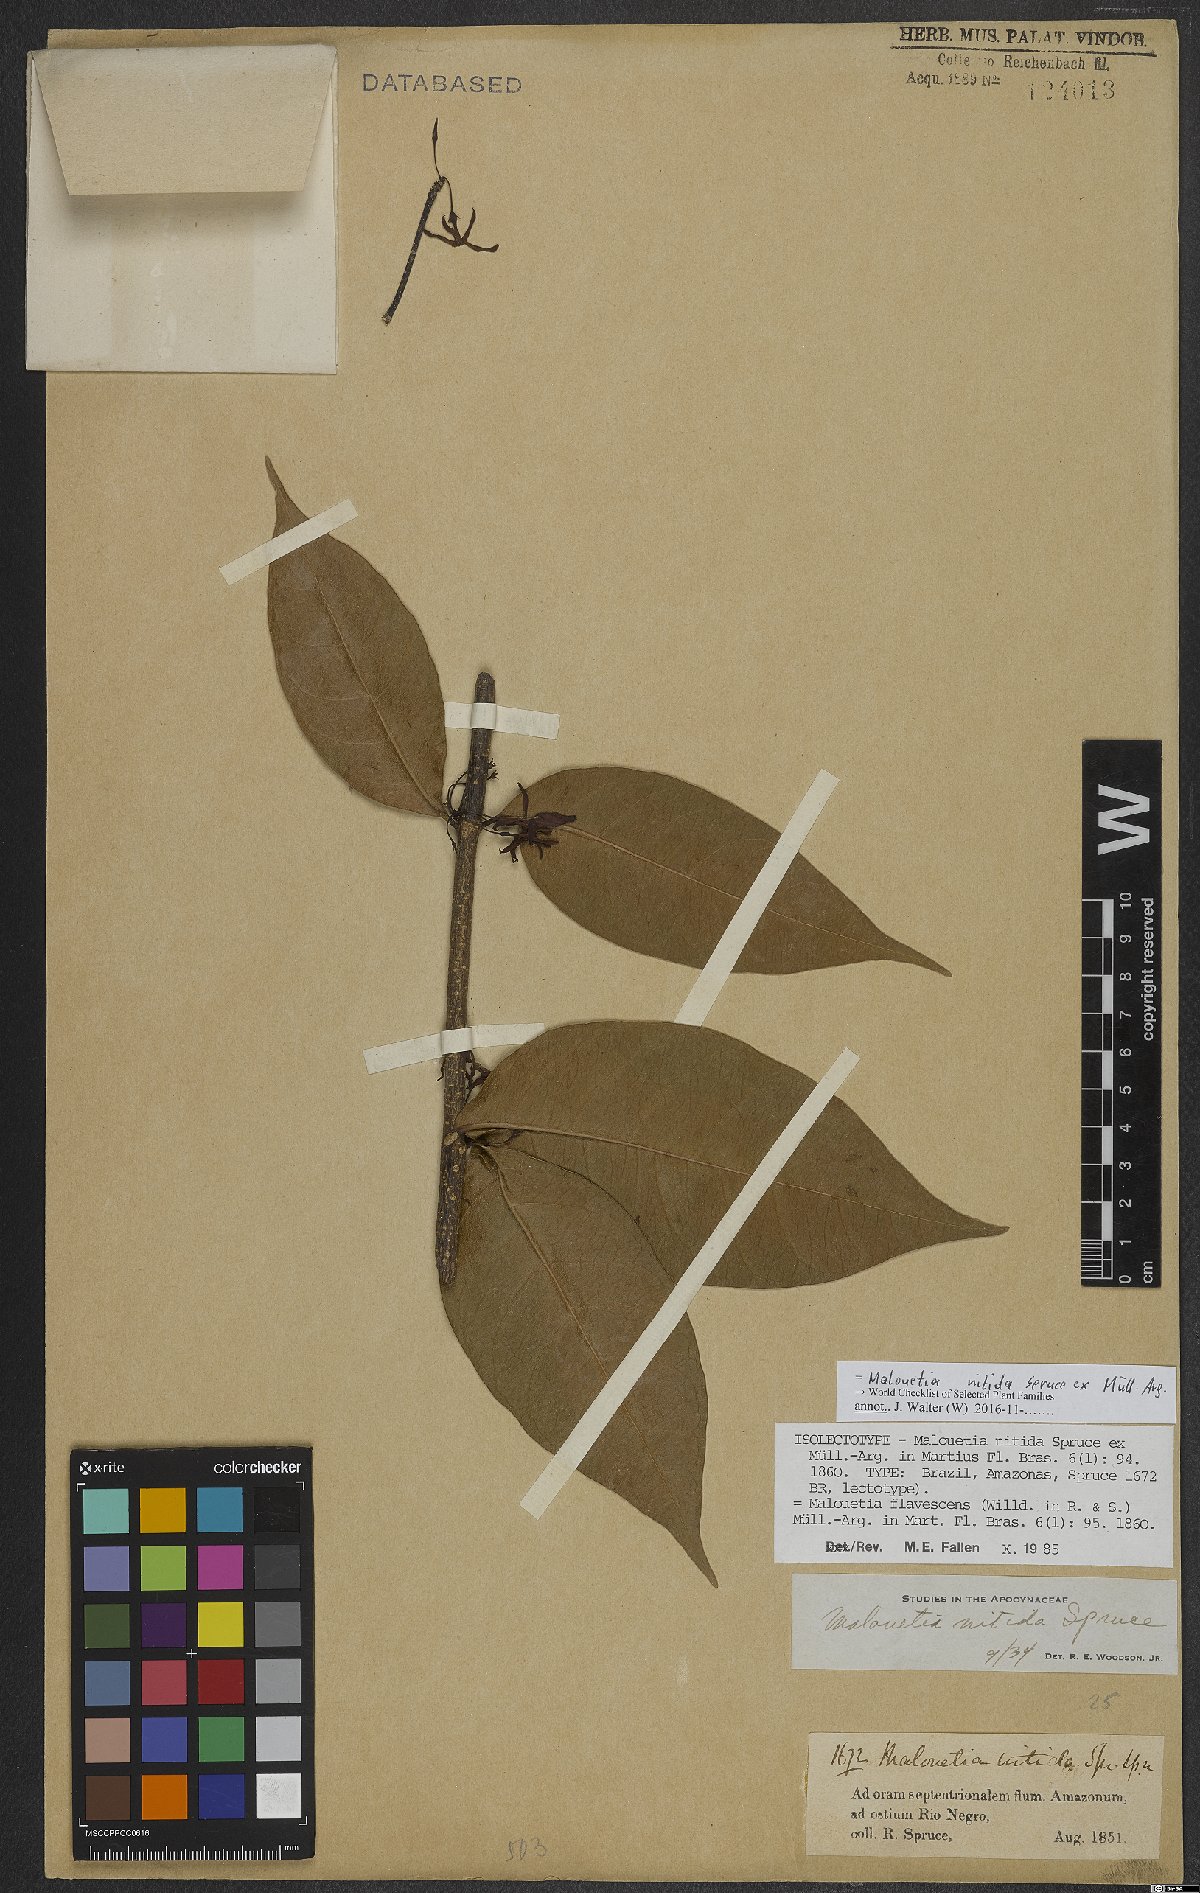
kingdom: Plantae
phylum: Tracheophyta
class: Magnoliopsida
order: Gentianales
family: Apocynaceae
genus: Malouetia
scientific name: Malouetia nitida
